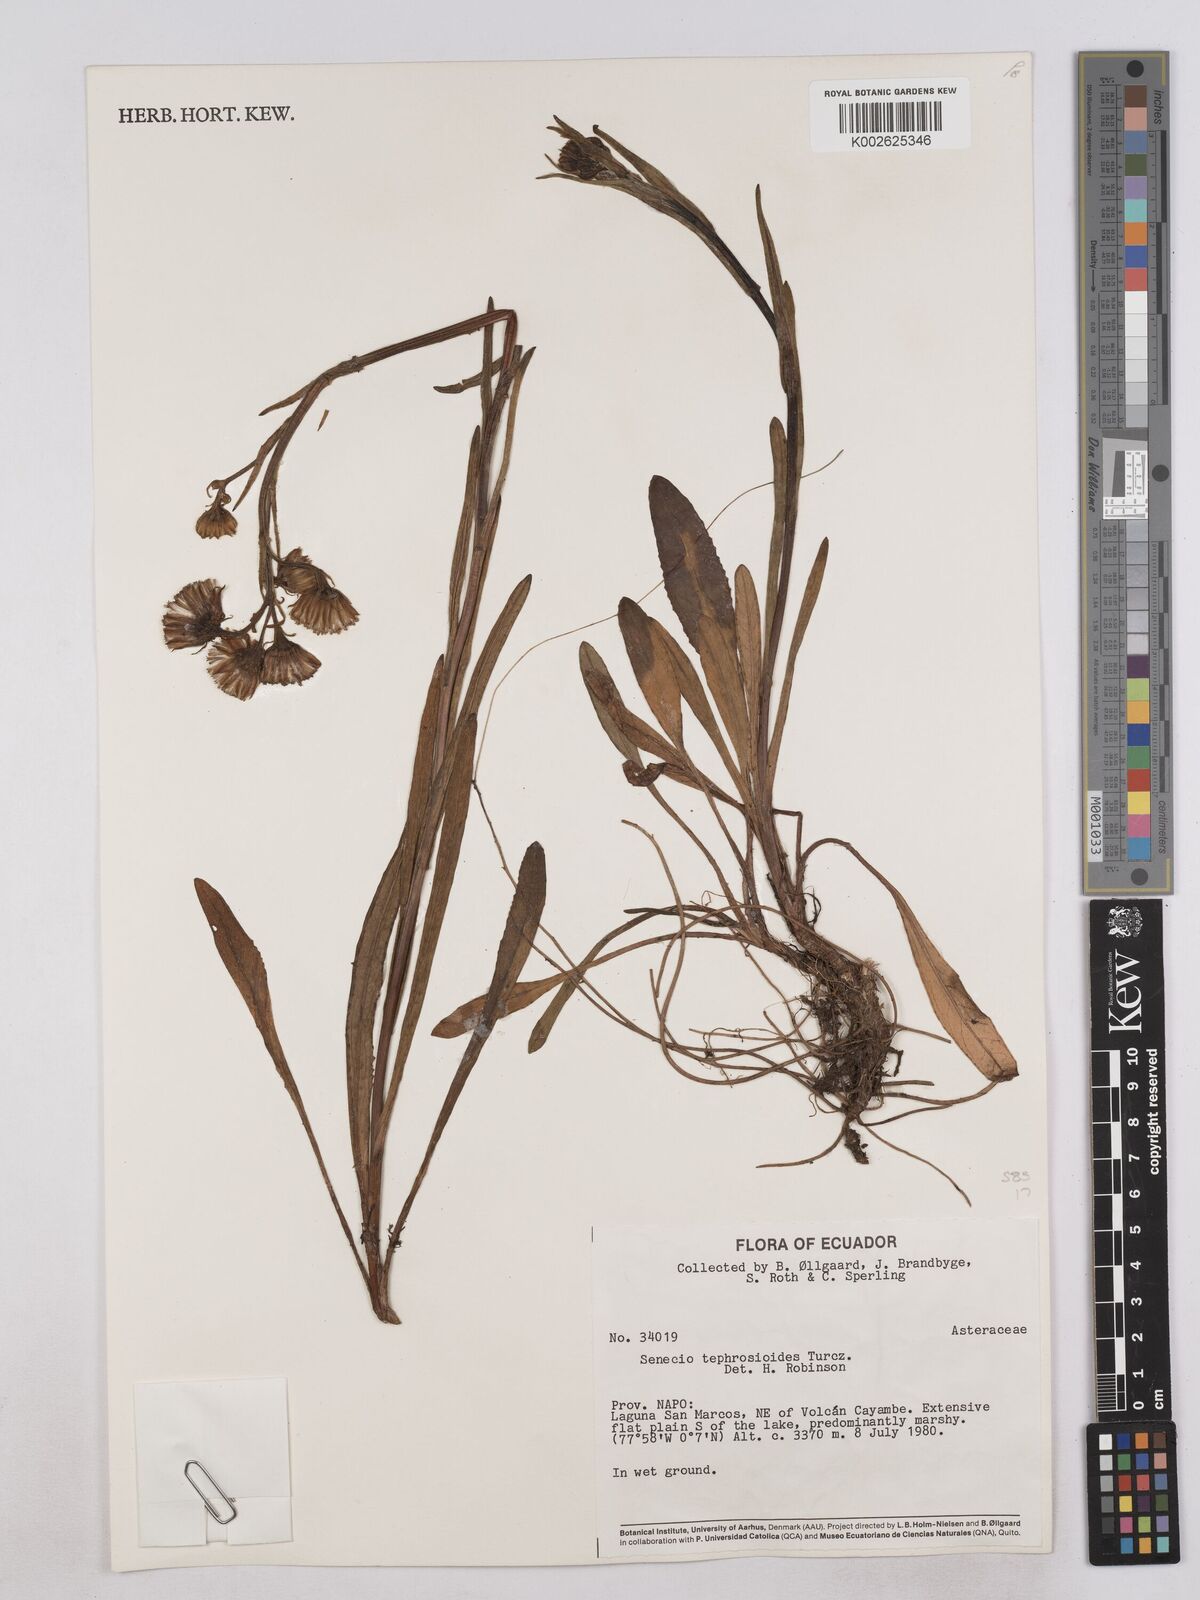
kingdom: Plantae
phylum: Tracheophyta
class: Magnoliopsida
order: Asterales
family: Asteraceae
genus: Senecio
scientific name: Senecio tephrosioides
